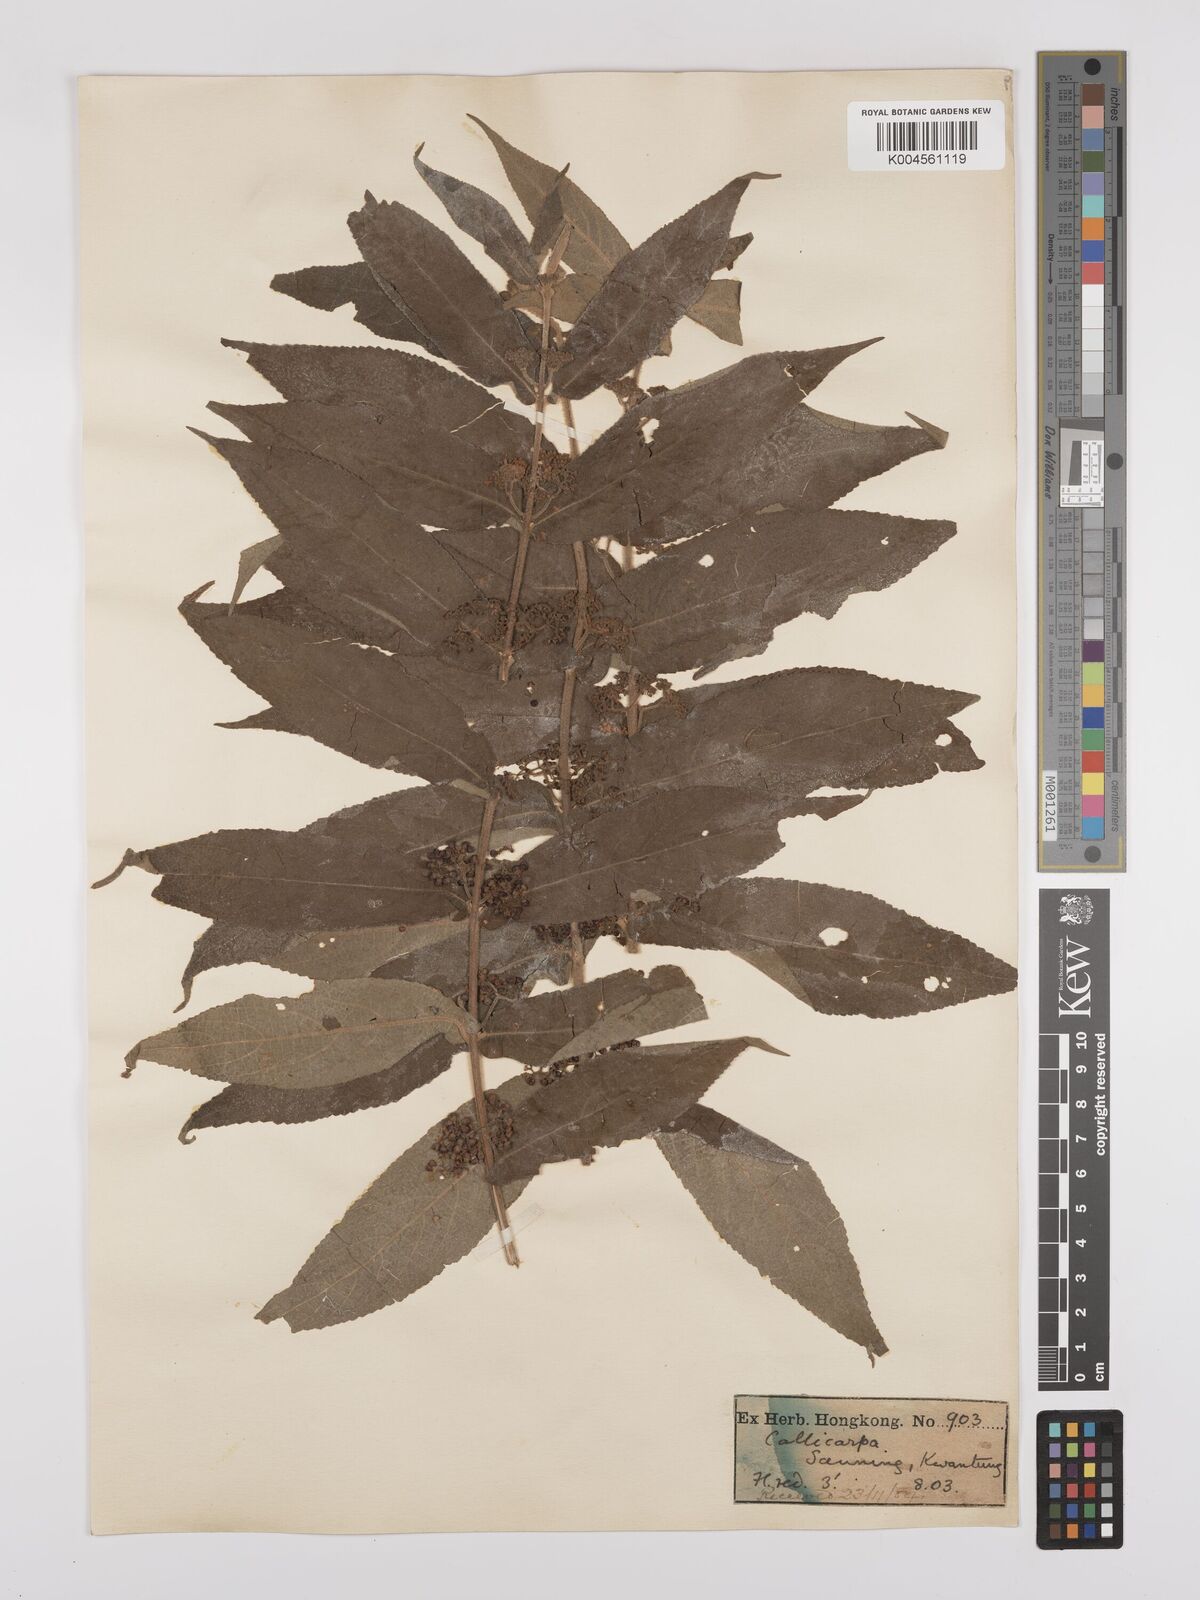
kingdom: Plantae
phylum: Tracheophyta
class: Magnoliopsida
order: Lamiales
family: Lamiaceae
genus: Callicarpa
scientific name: Callicarpa rubella
